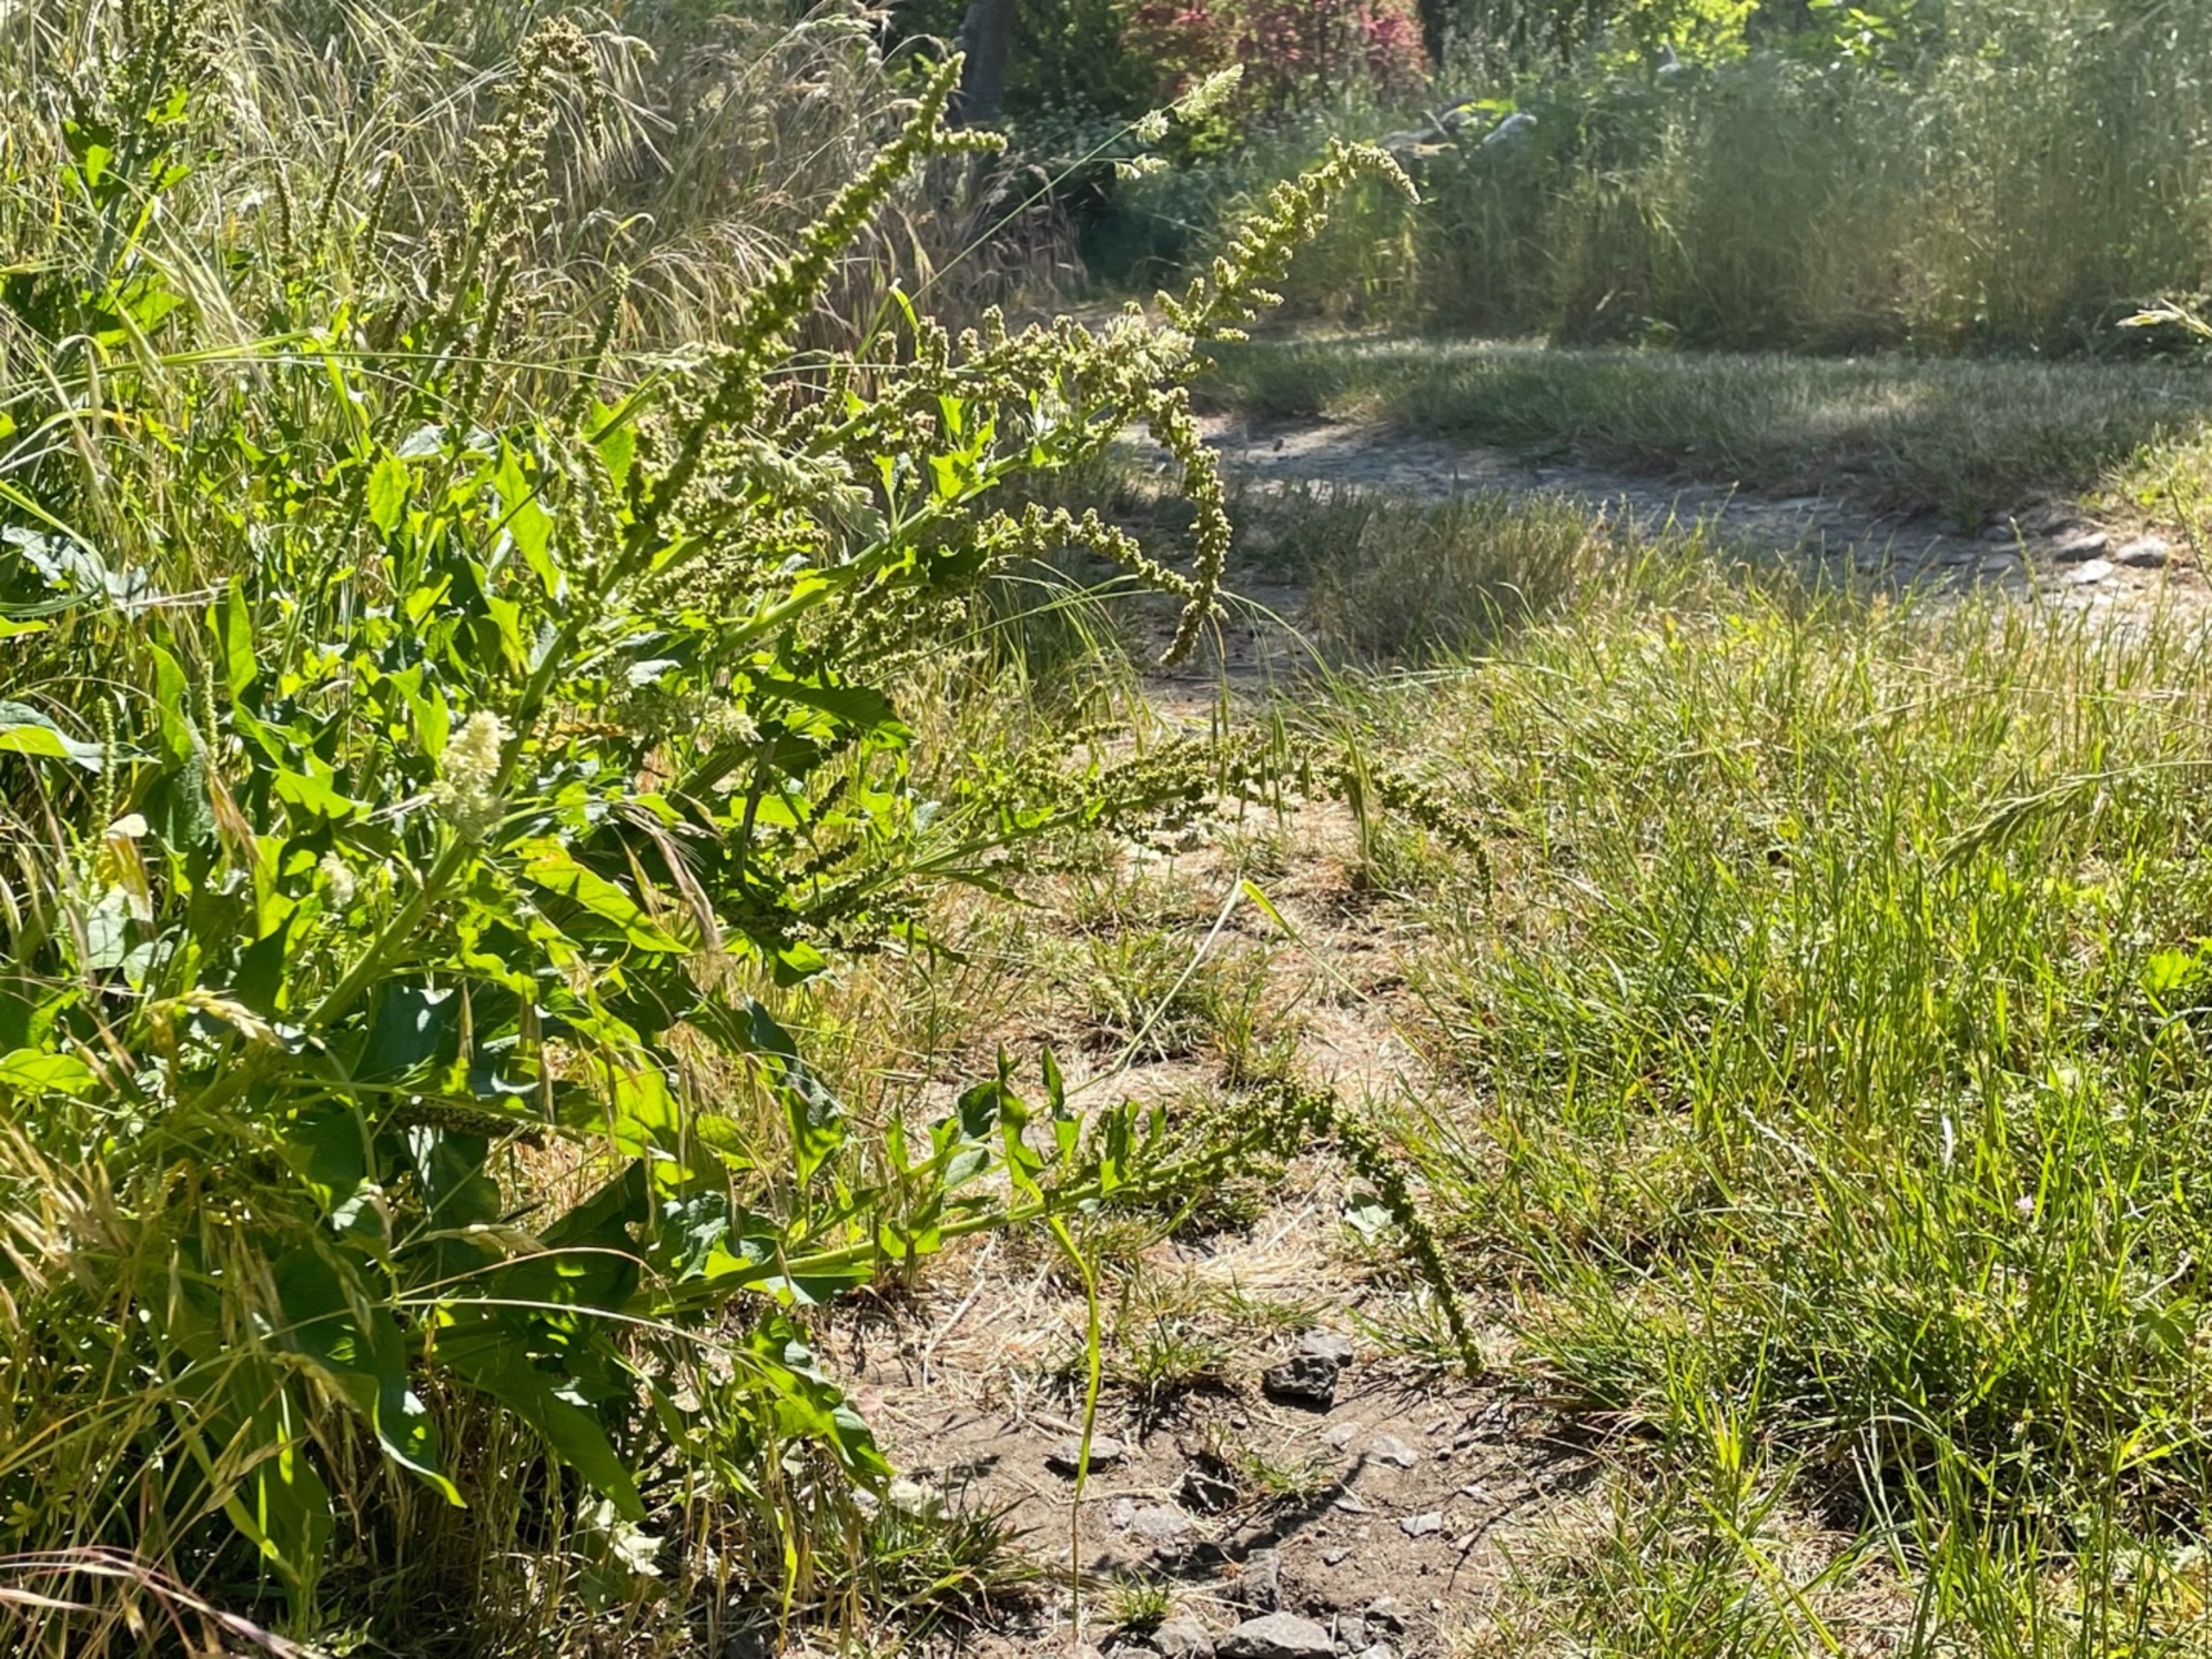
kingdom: Plantae
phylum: Tracheophyta
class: Magnoliopsida
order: Caryophyllales
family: Amaranthaceae
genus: Blitum
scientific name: Blitum bonus-henricus
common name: Stolthenriks-gåsefod
